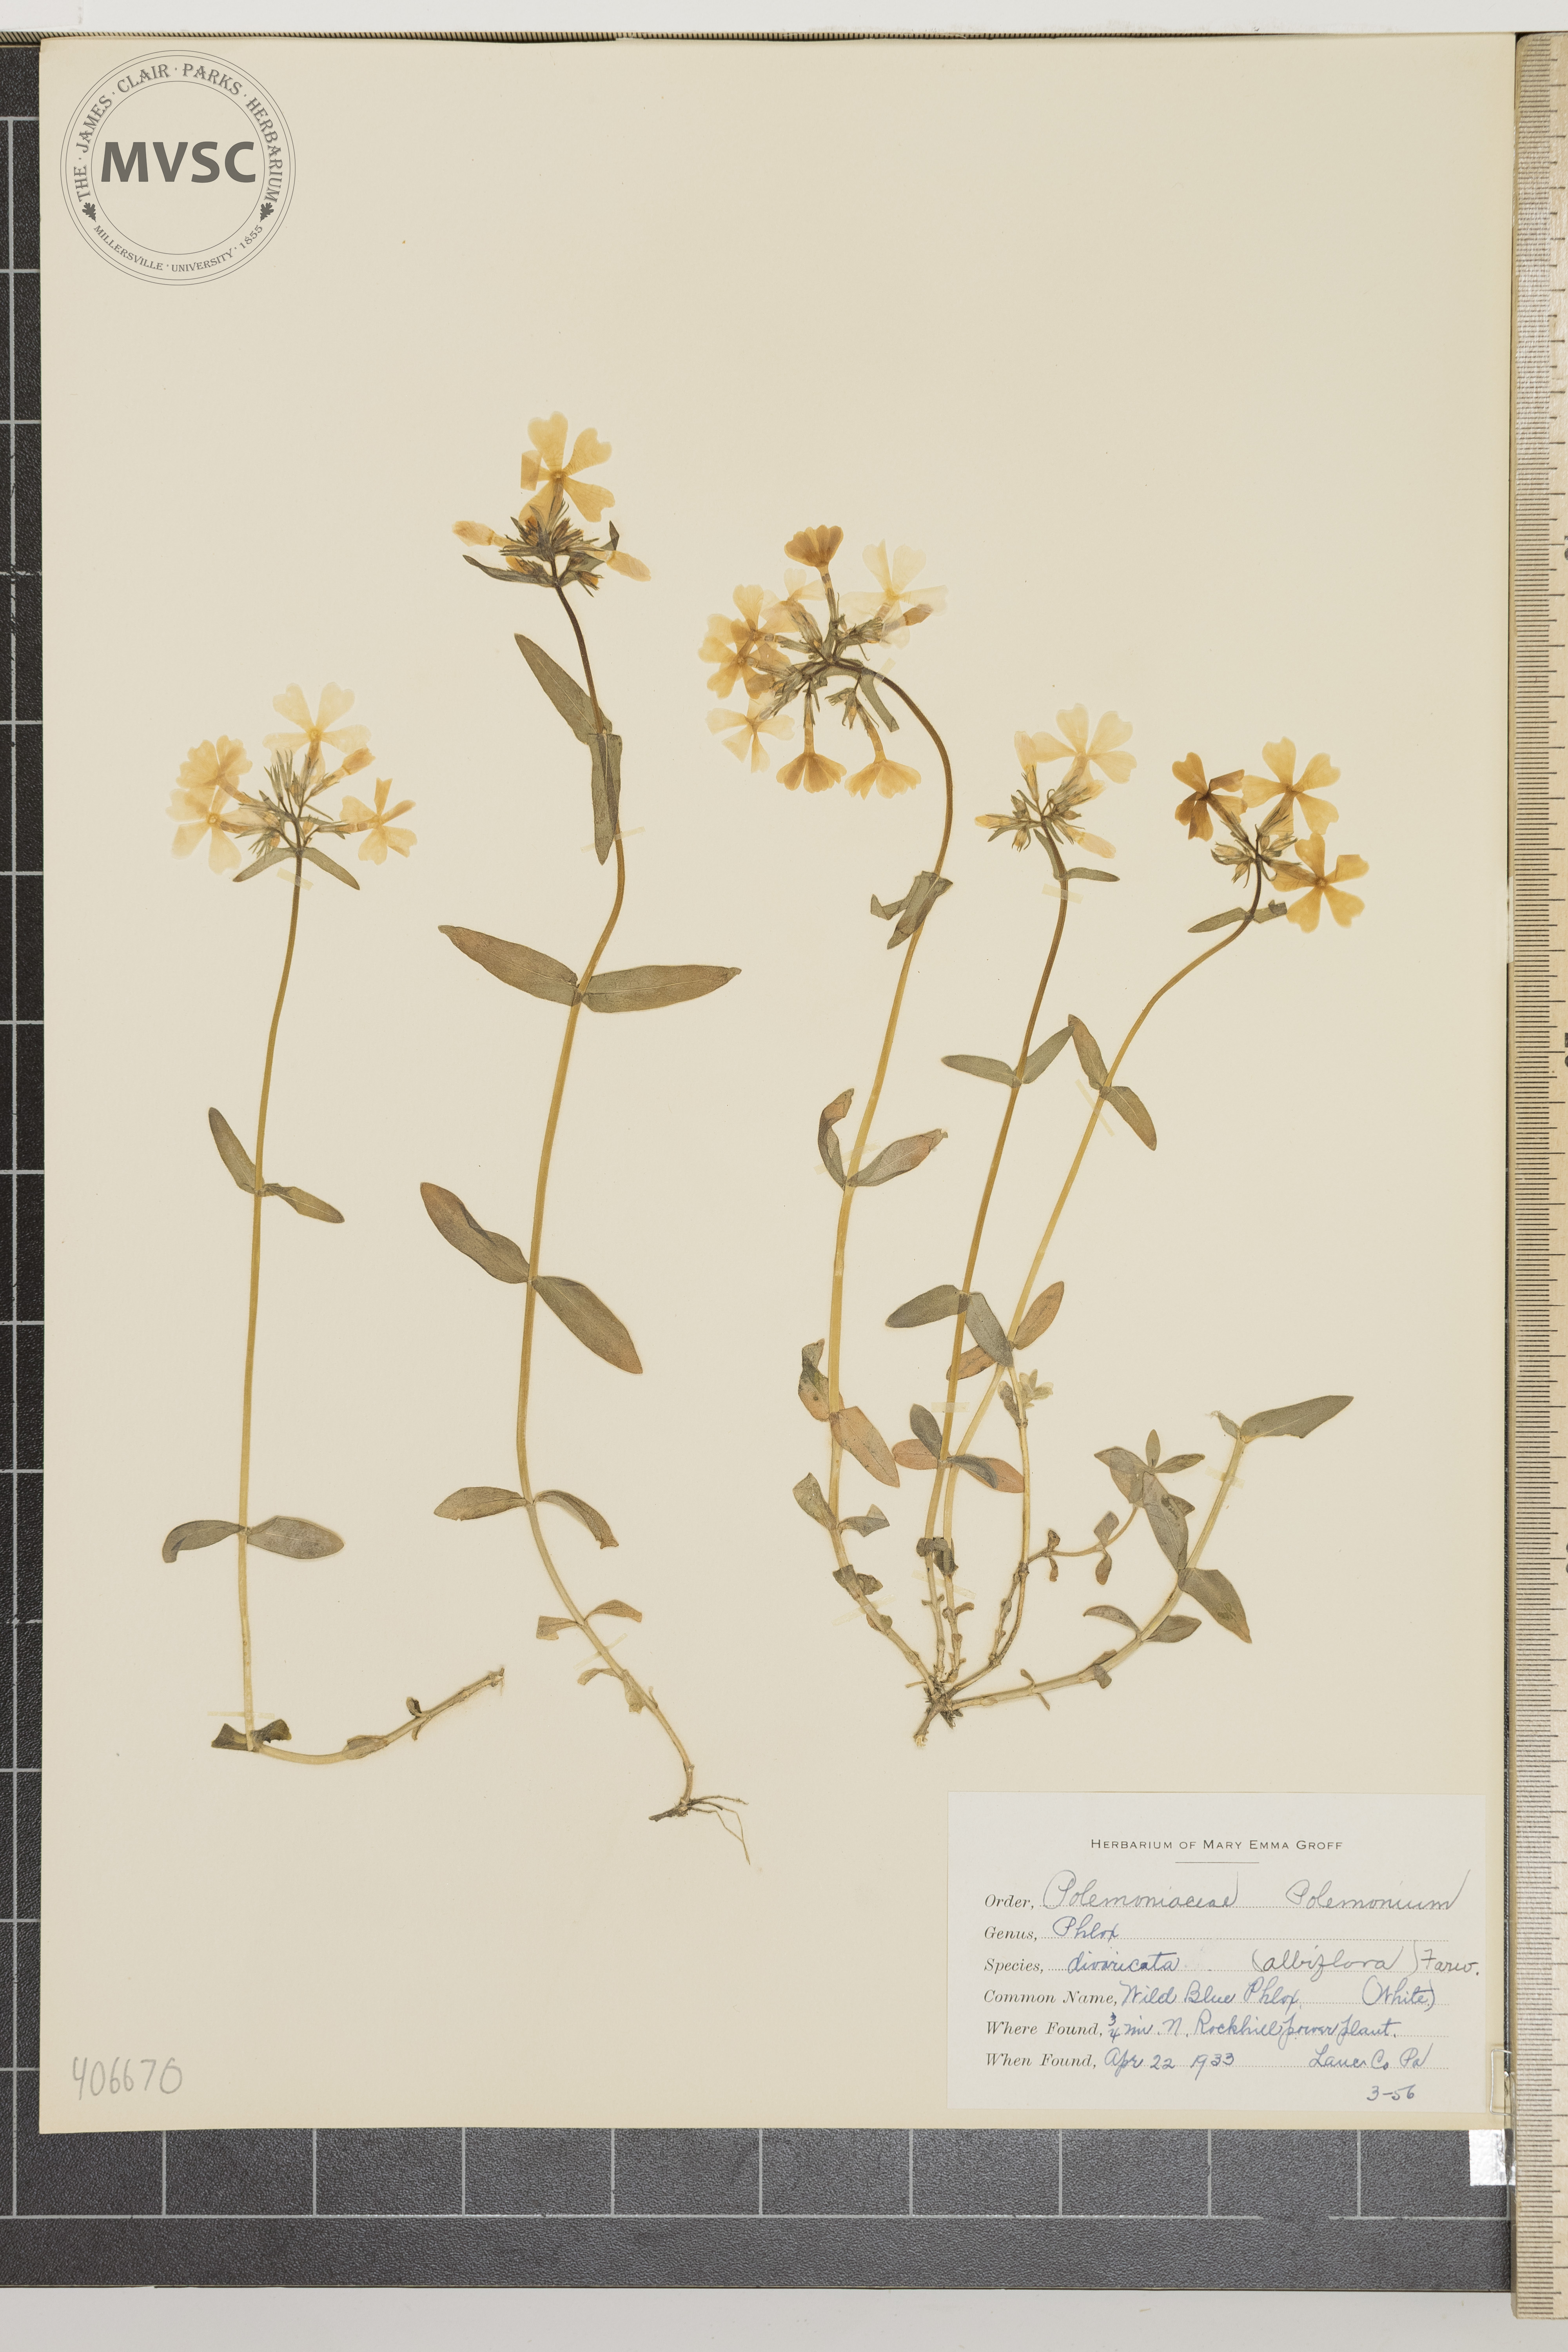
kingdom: Plantae
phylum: Tracheophyta
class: Magnoliopsida
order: Ericales
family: Polemoniaceae
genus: Phlox
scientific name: Phlox divaricata
